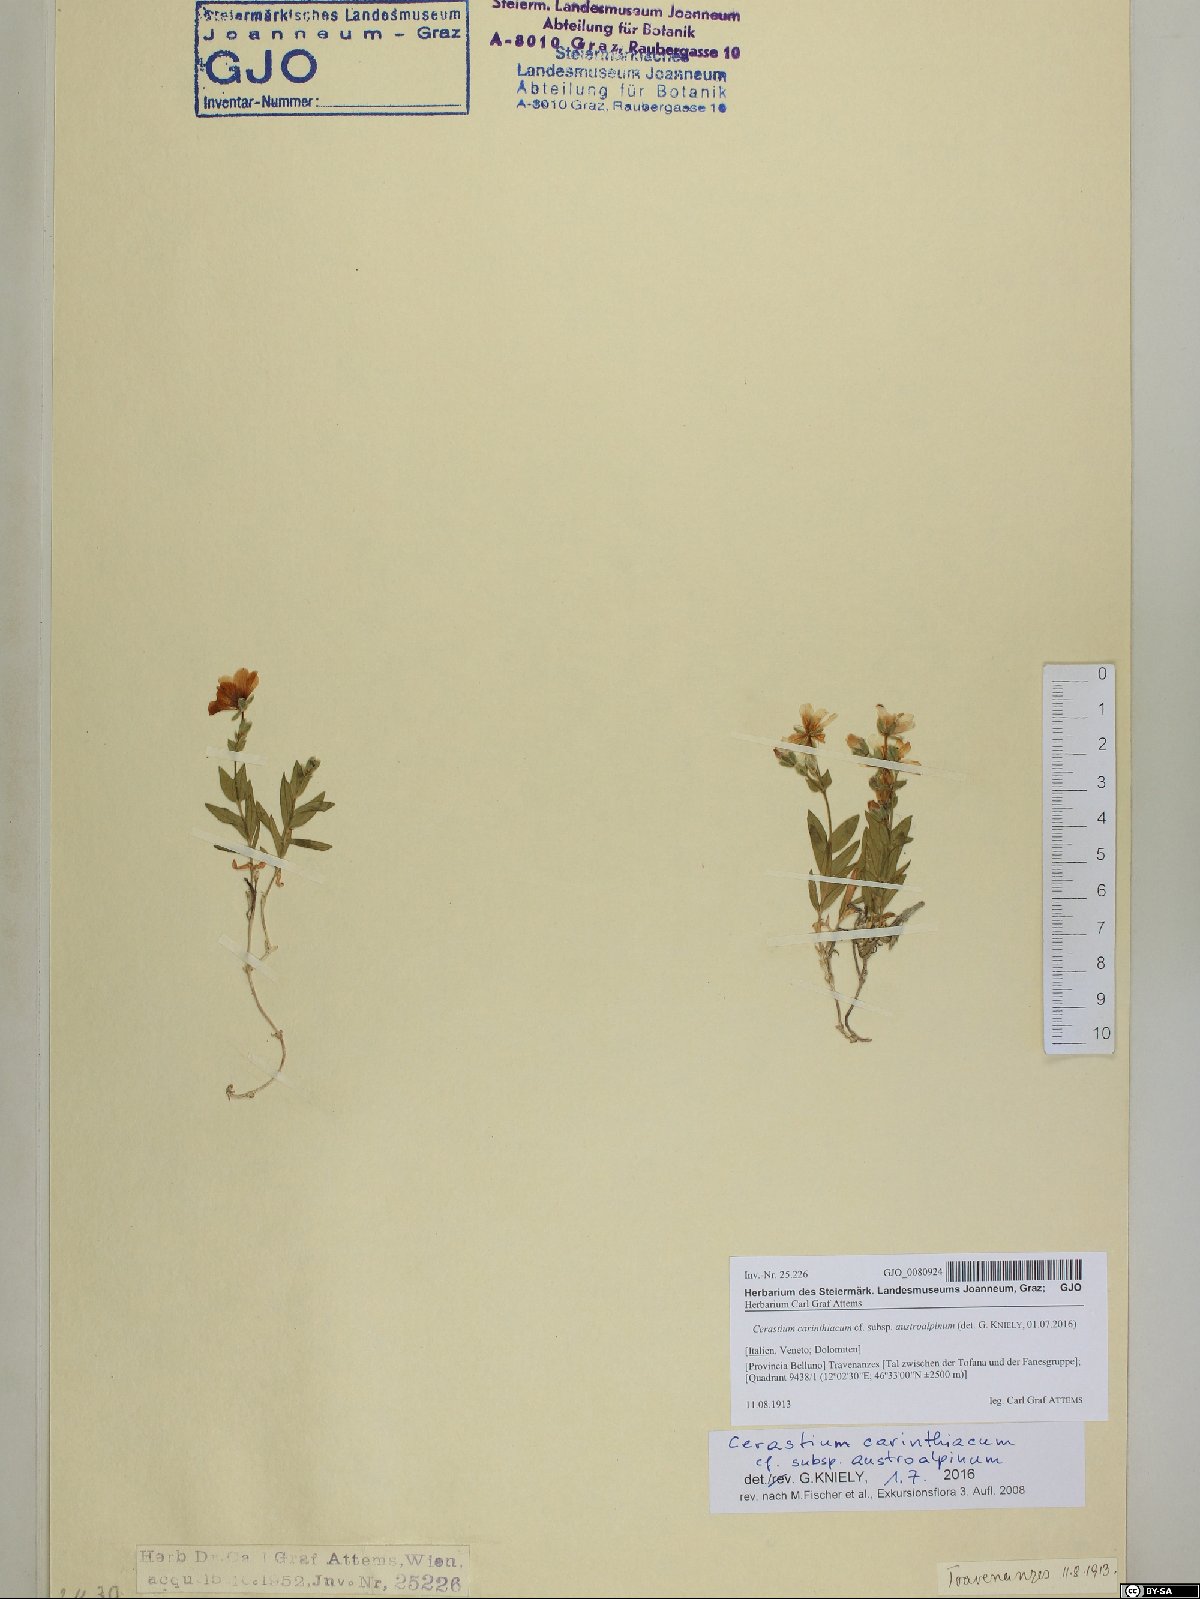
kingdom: Plantae
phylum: Tracheophyta
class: Magnoliopsida
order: Caryophyllales
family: Caryophyllaceae
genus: Cerastium
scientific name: Cerastium carinthiacum
